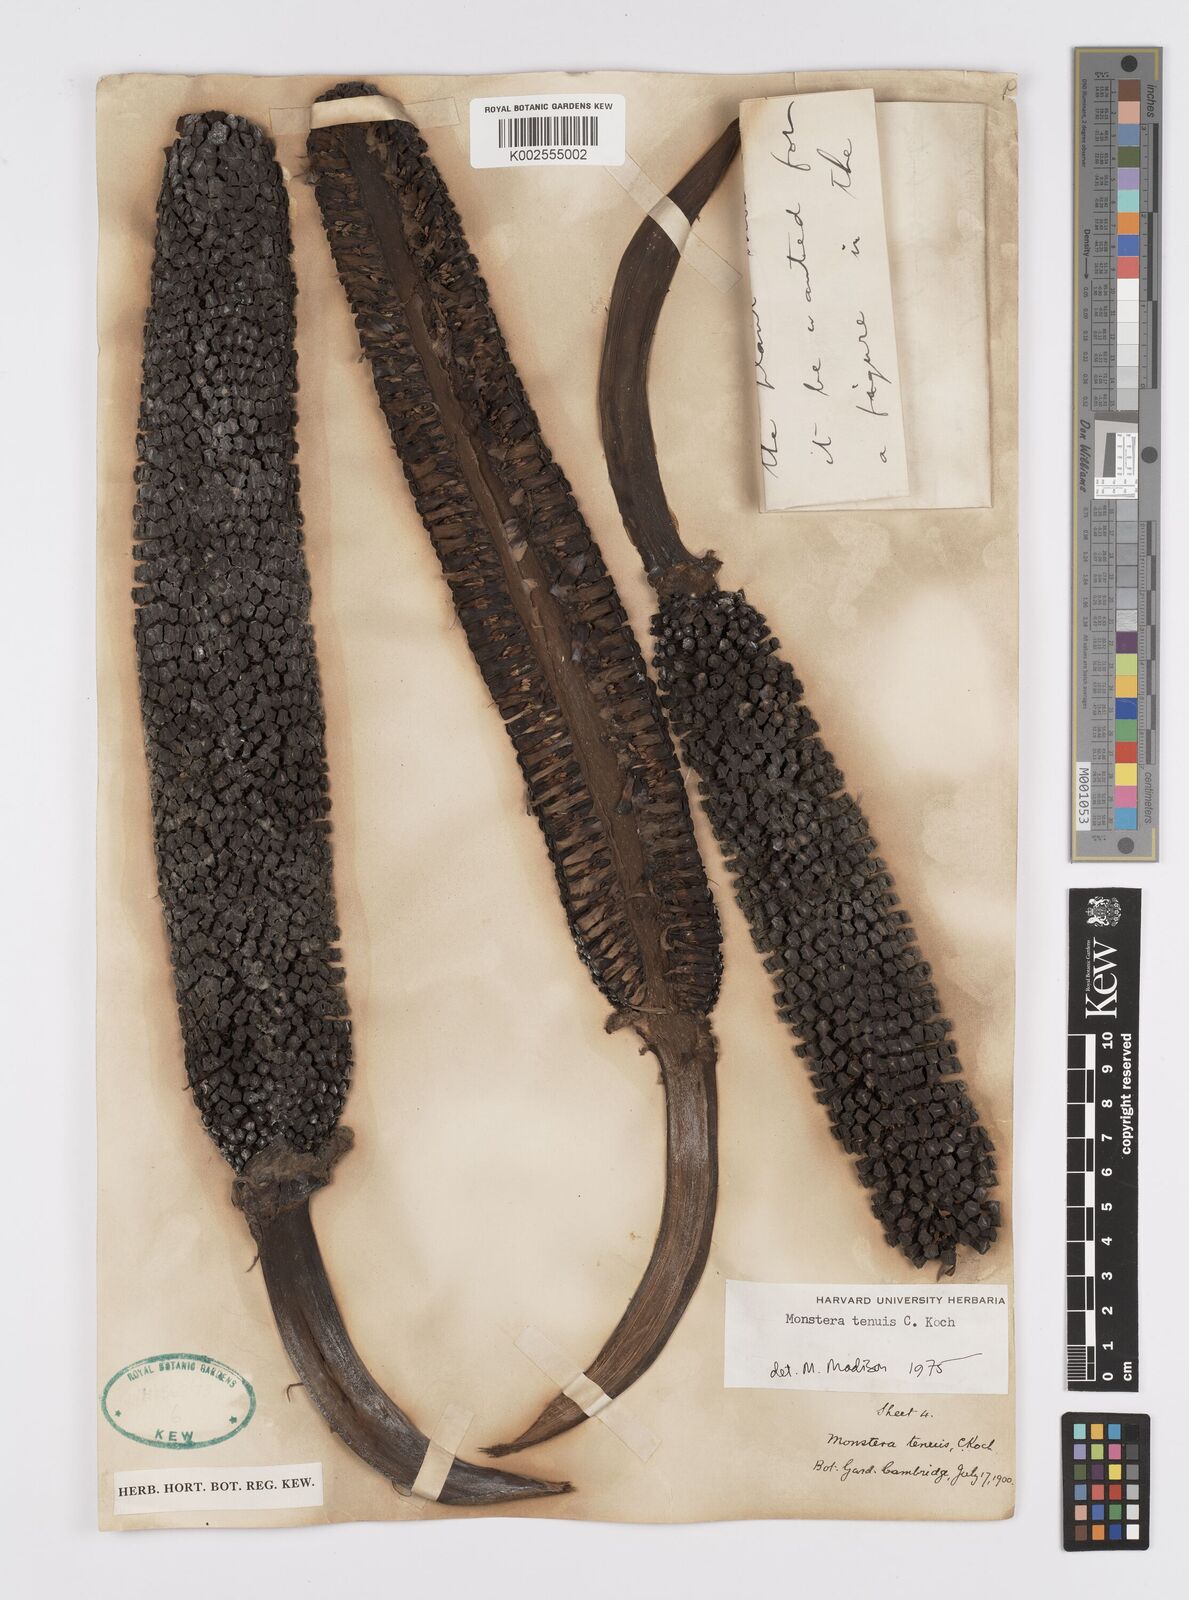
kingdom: Plantae
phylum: Tracheophyta
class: Liliopsida
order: Alismatales
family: Araceae
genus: Monstera
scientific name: Monstera tenuis
